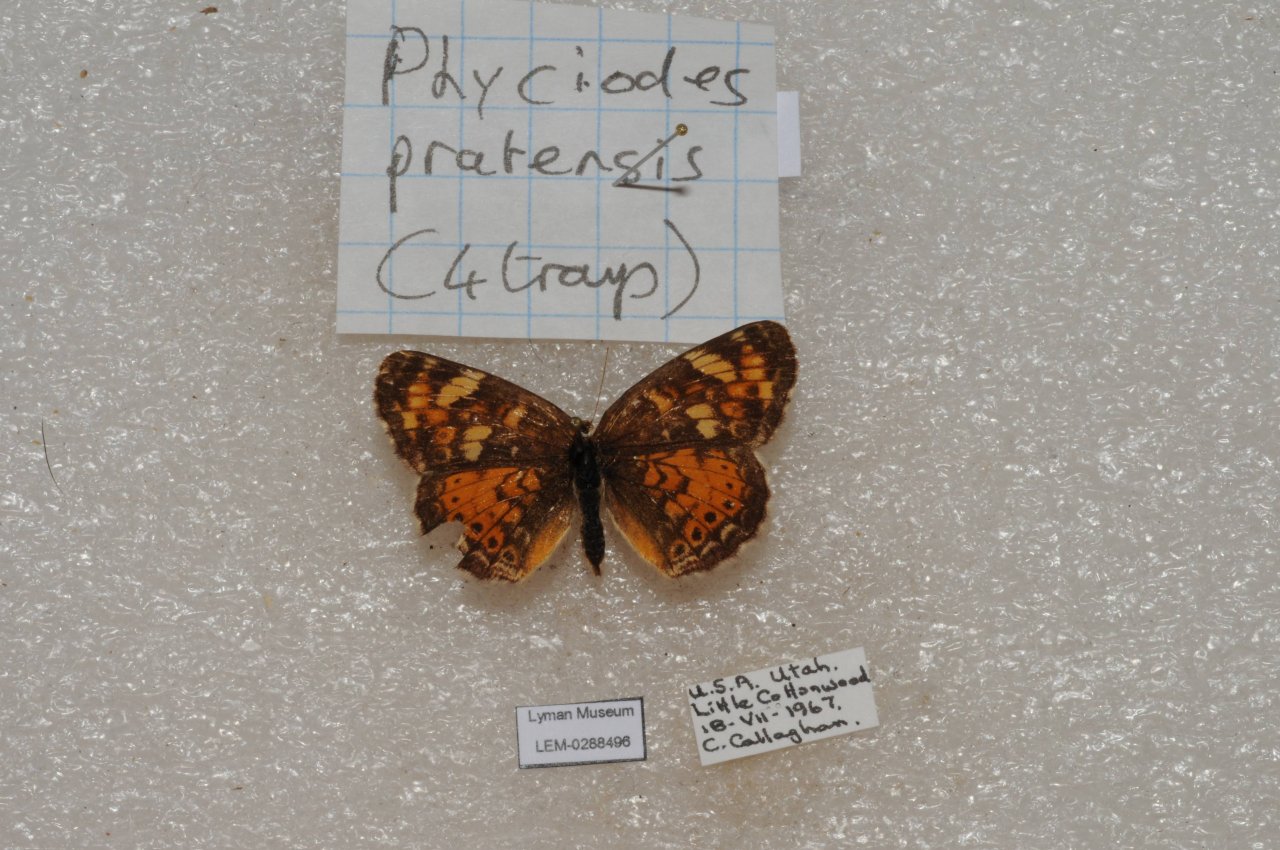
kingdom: Animalia
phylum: Arthropoda
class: Insecta
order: Lepidoptera
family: Nymphalidae
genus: Phyciodes
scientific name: Phyciodes tharos
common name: Field Crescent
